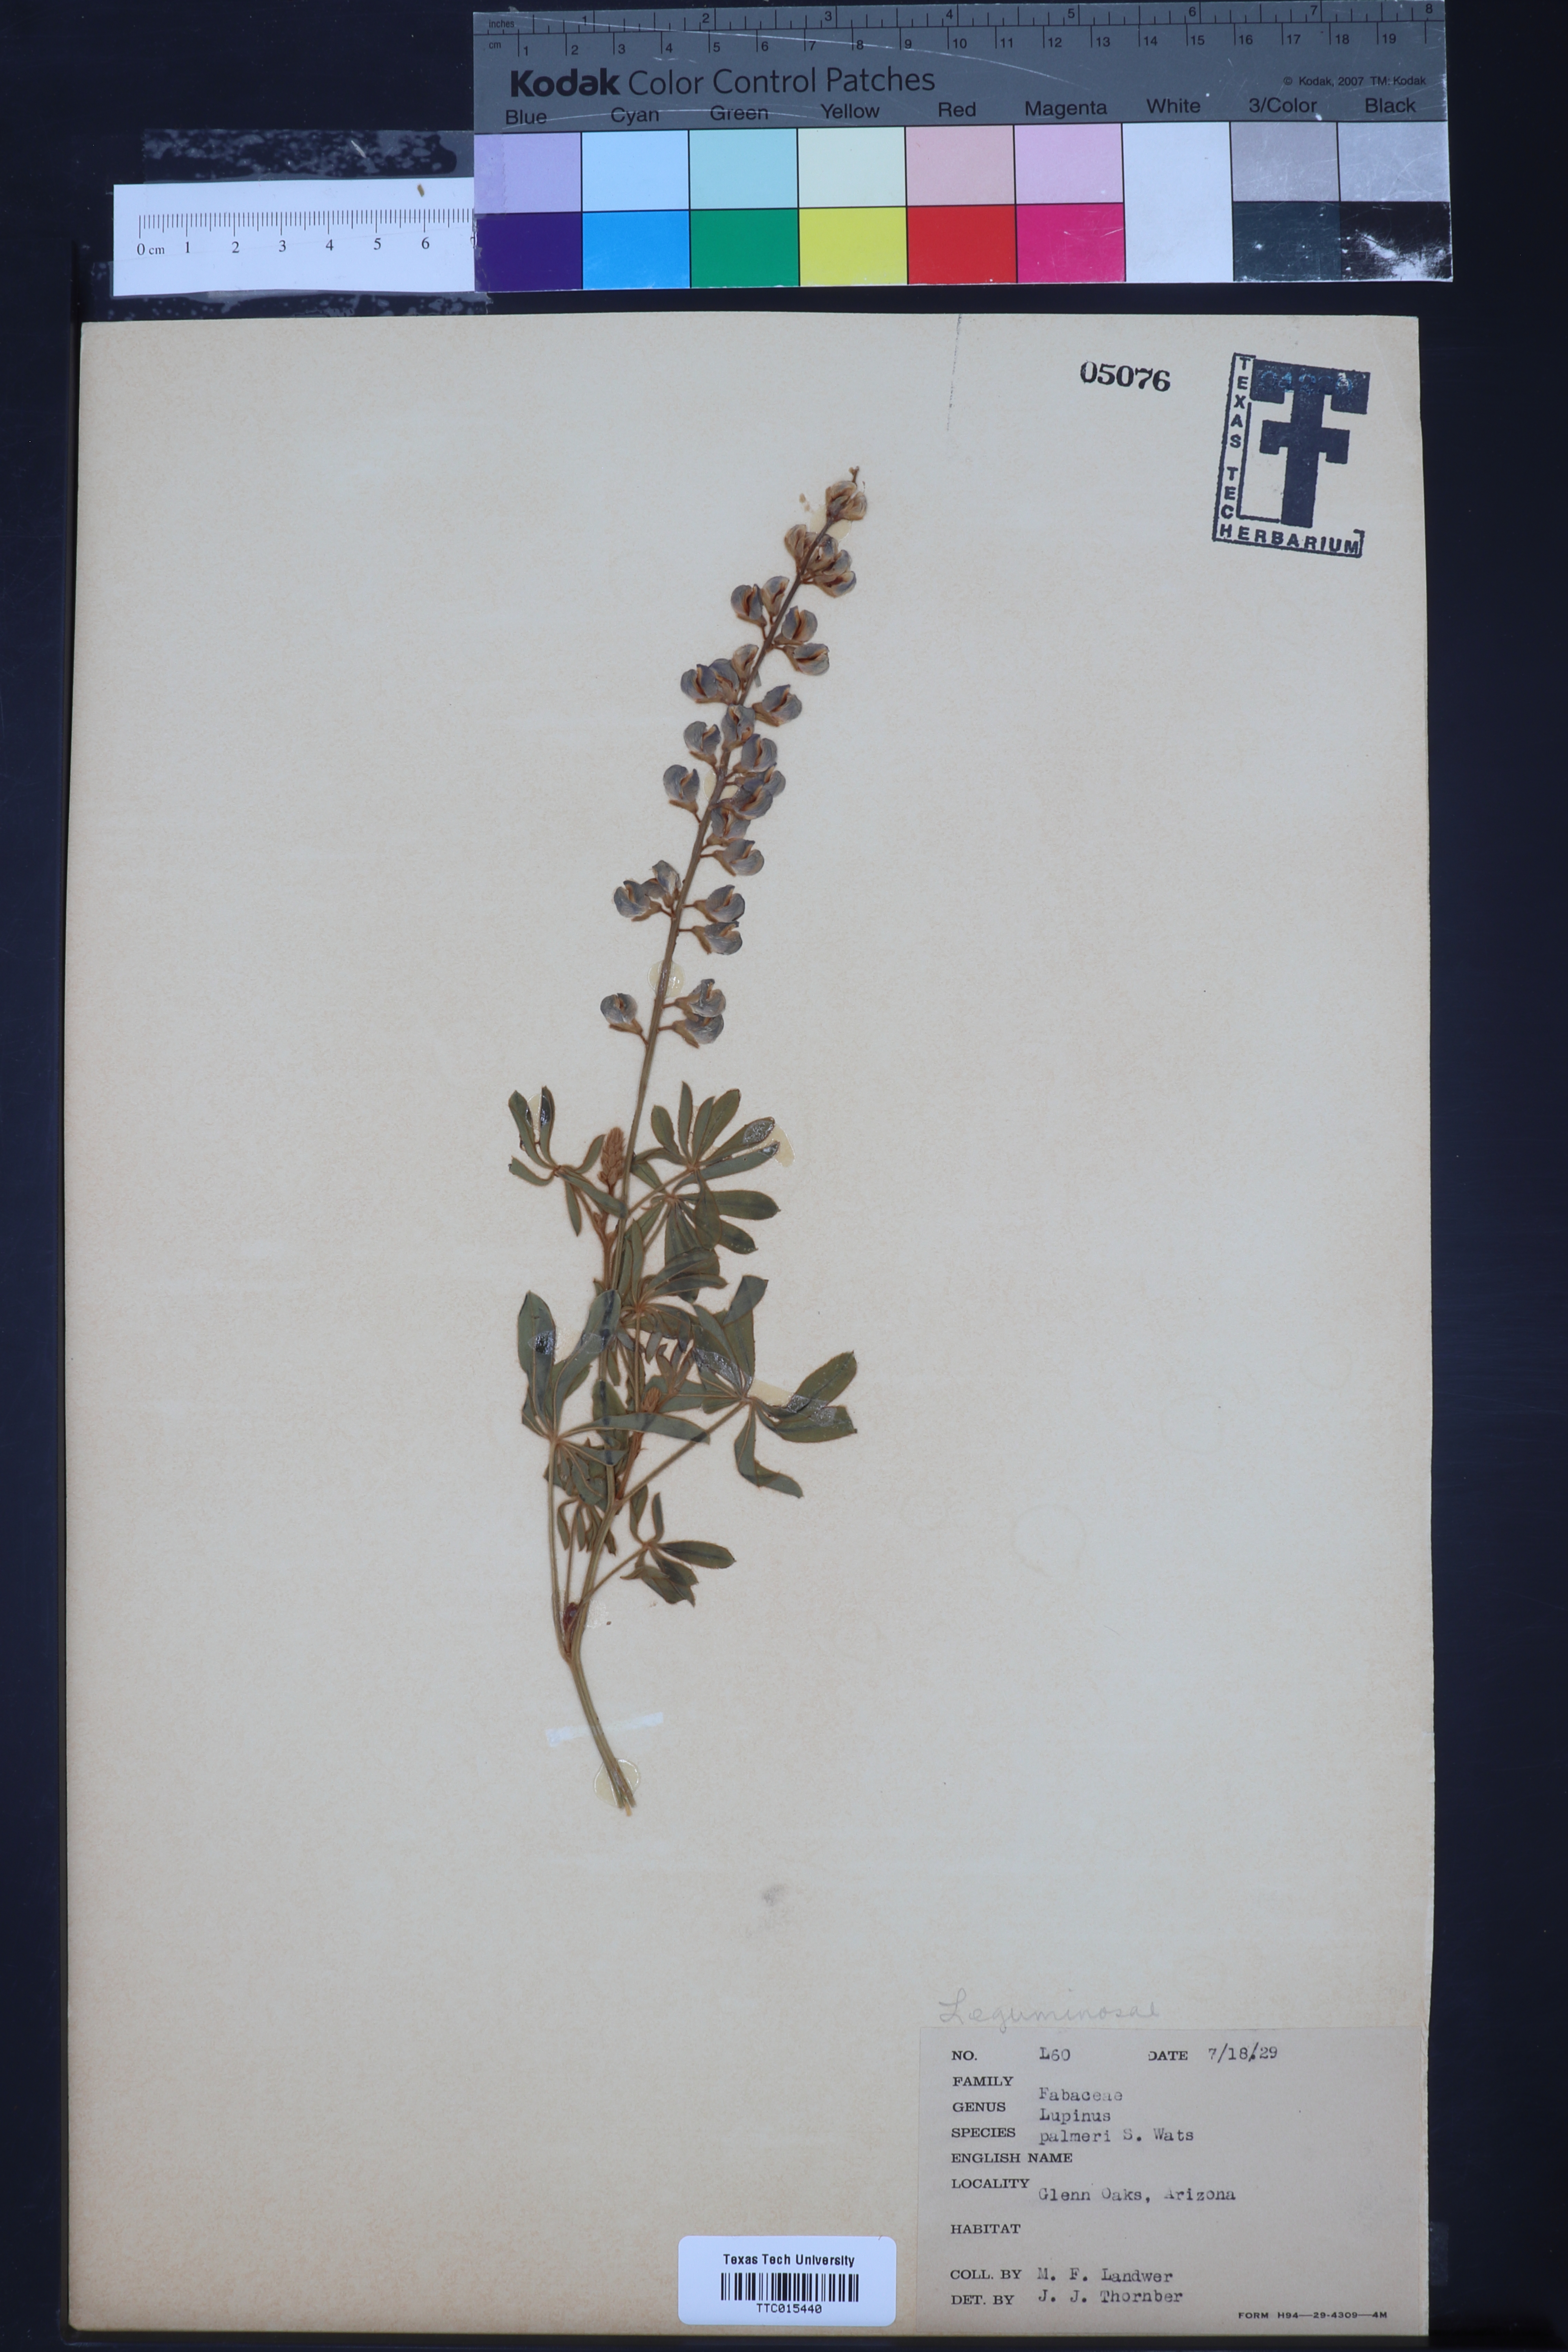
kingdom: Plantae
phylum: Tracheophyta
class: Magnoliopsida
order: Fabales
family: Fabaceae
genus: Lupinus
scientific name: Lupinus argenteus
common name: Silvery lupine
